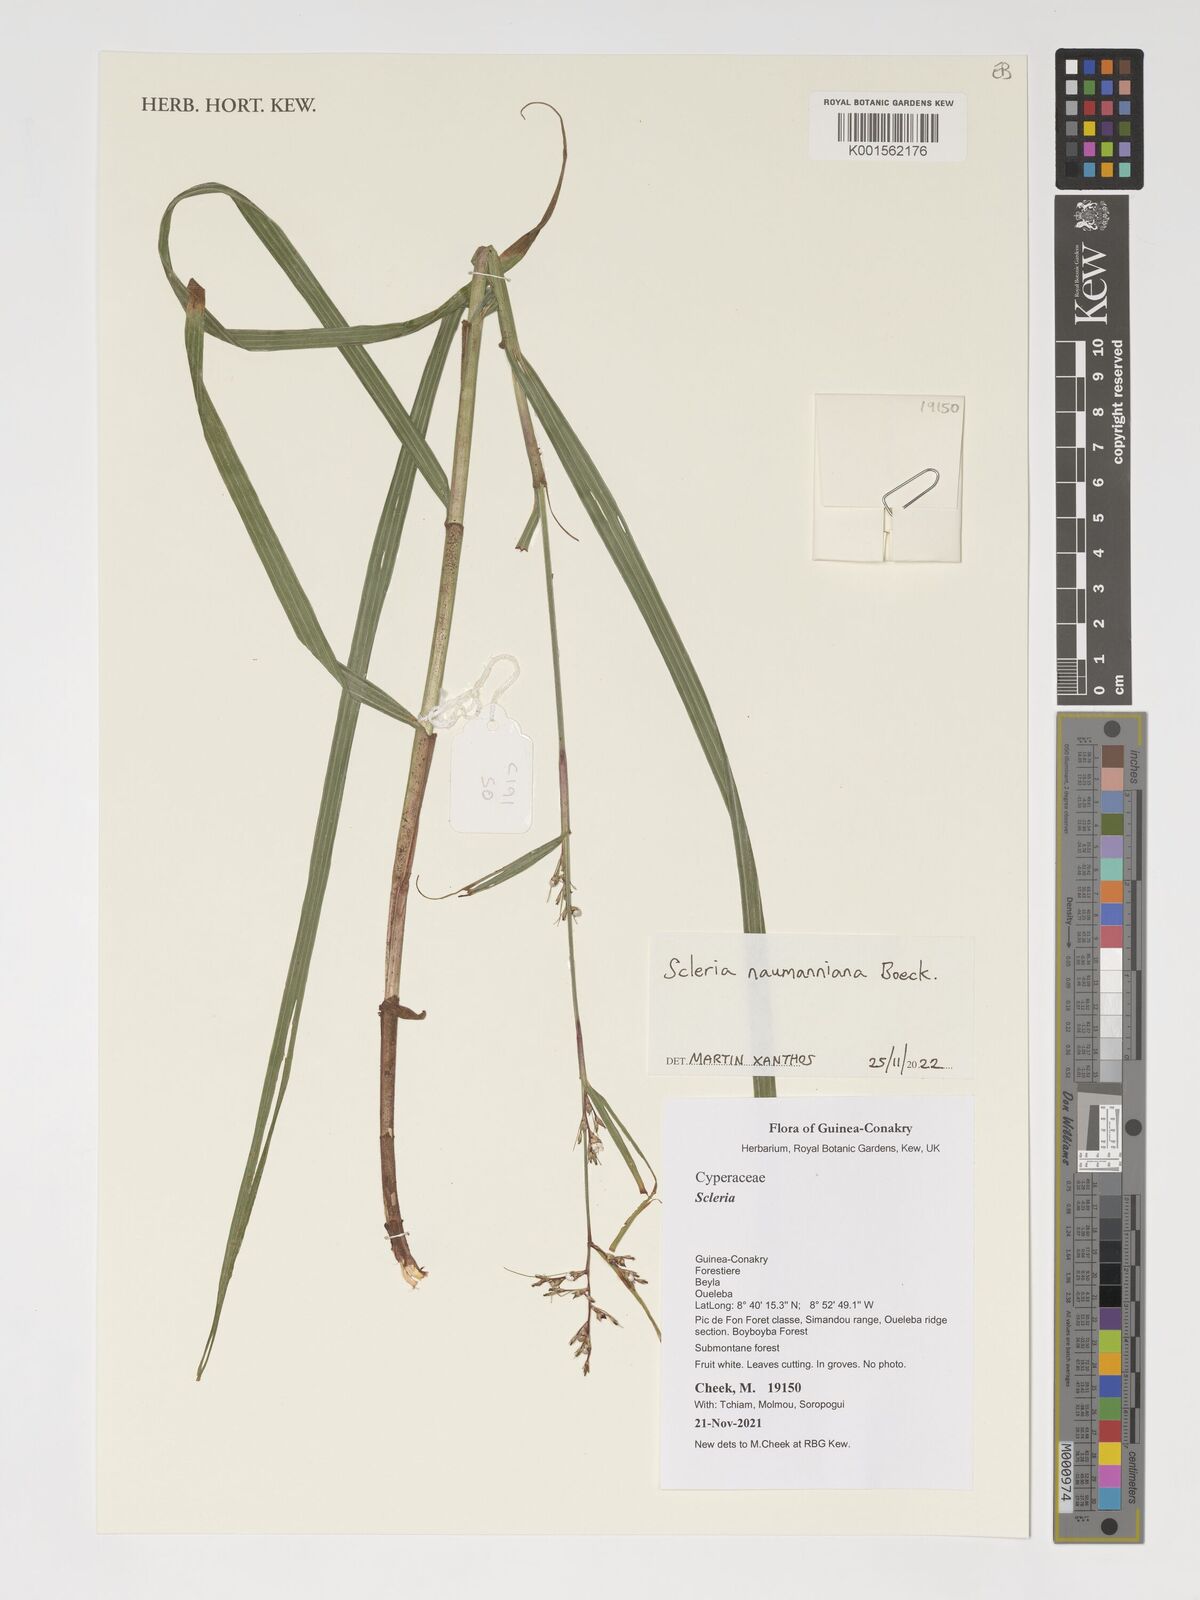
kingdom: Plantae
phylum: Tracheophyta
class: Liliopsida
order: Poales
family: Cyperaceae
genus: Scleria
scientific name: Scleria naumanniana
